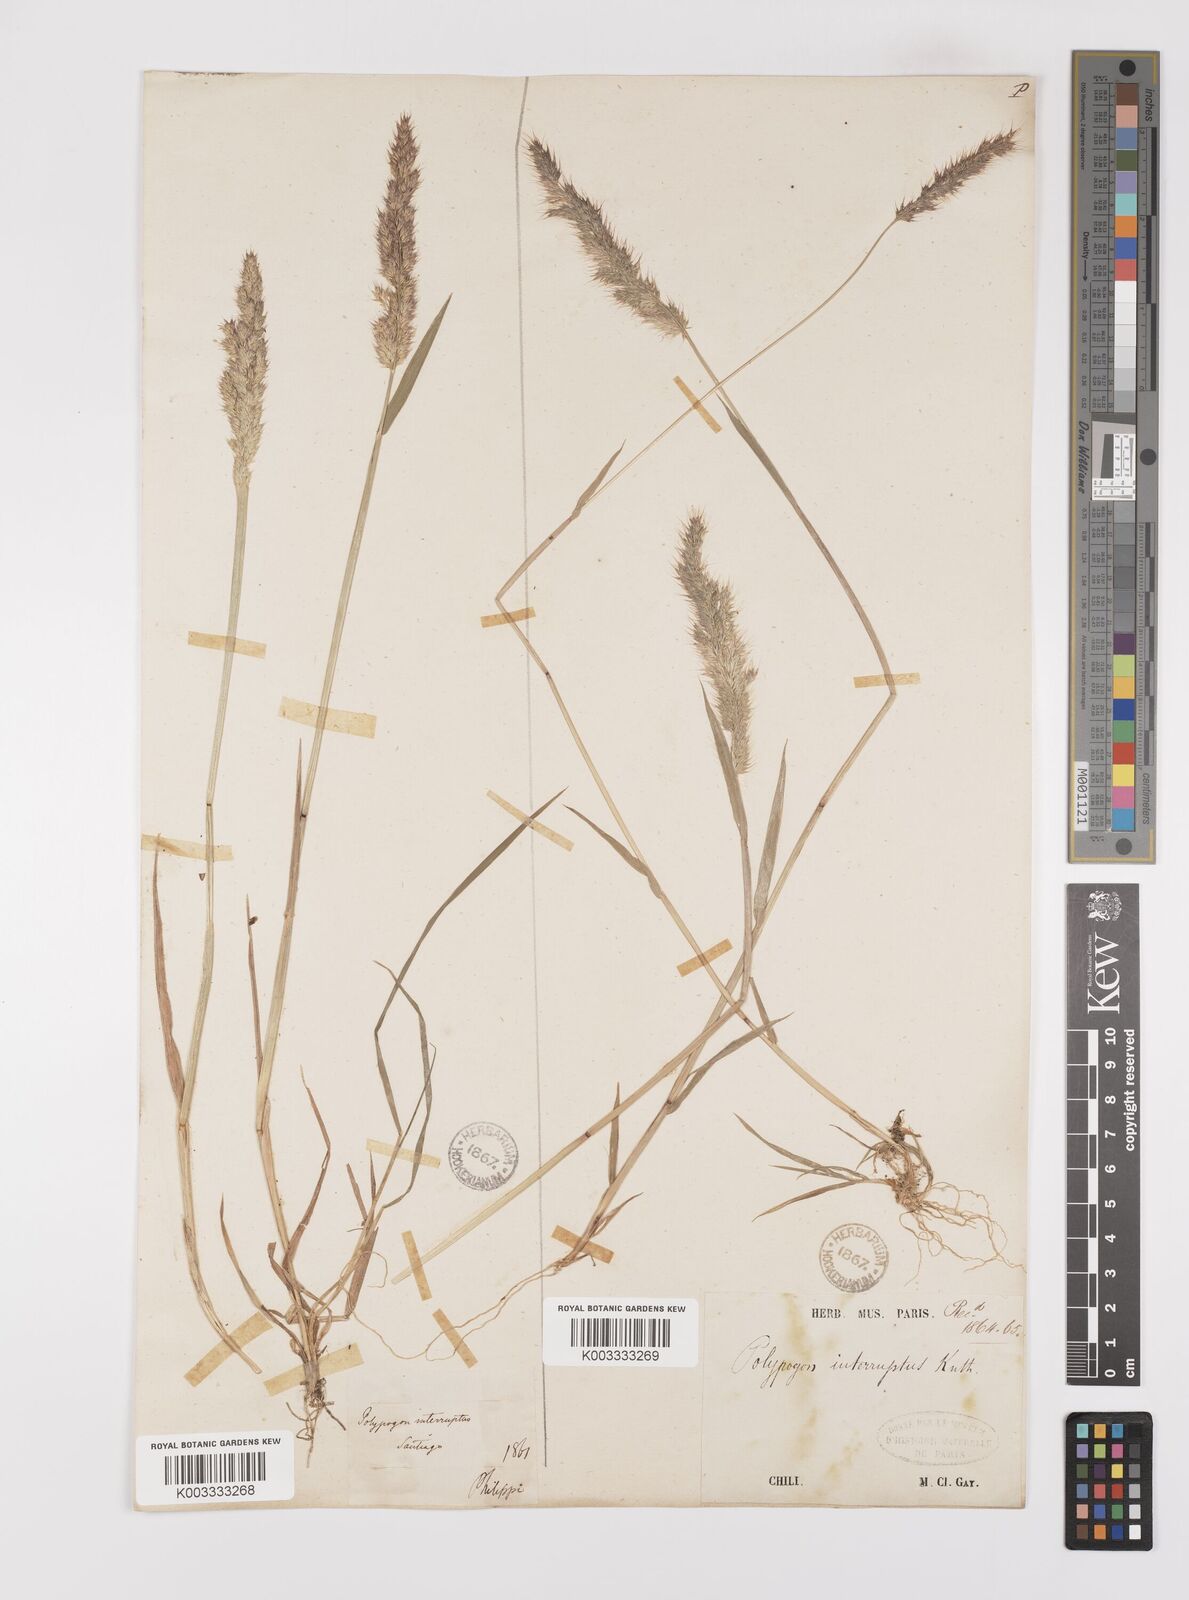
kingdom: Plantae
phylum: Tracheophyta
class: Liliopsida
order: Poales
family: Poaceae
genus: Polypogon
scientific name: Polypogon interruptus
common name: Ditch polypogon
